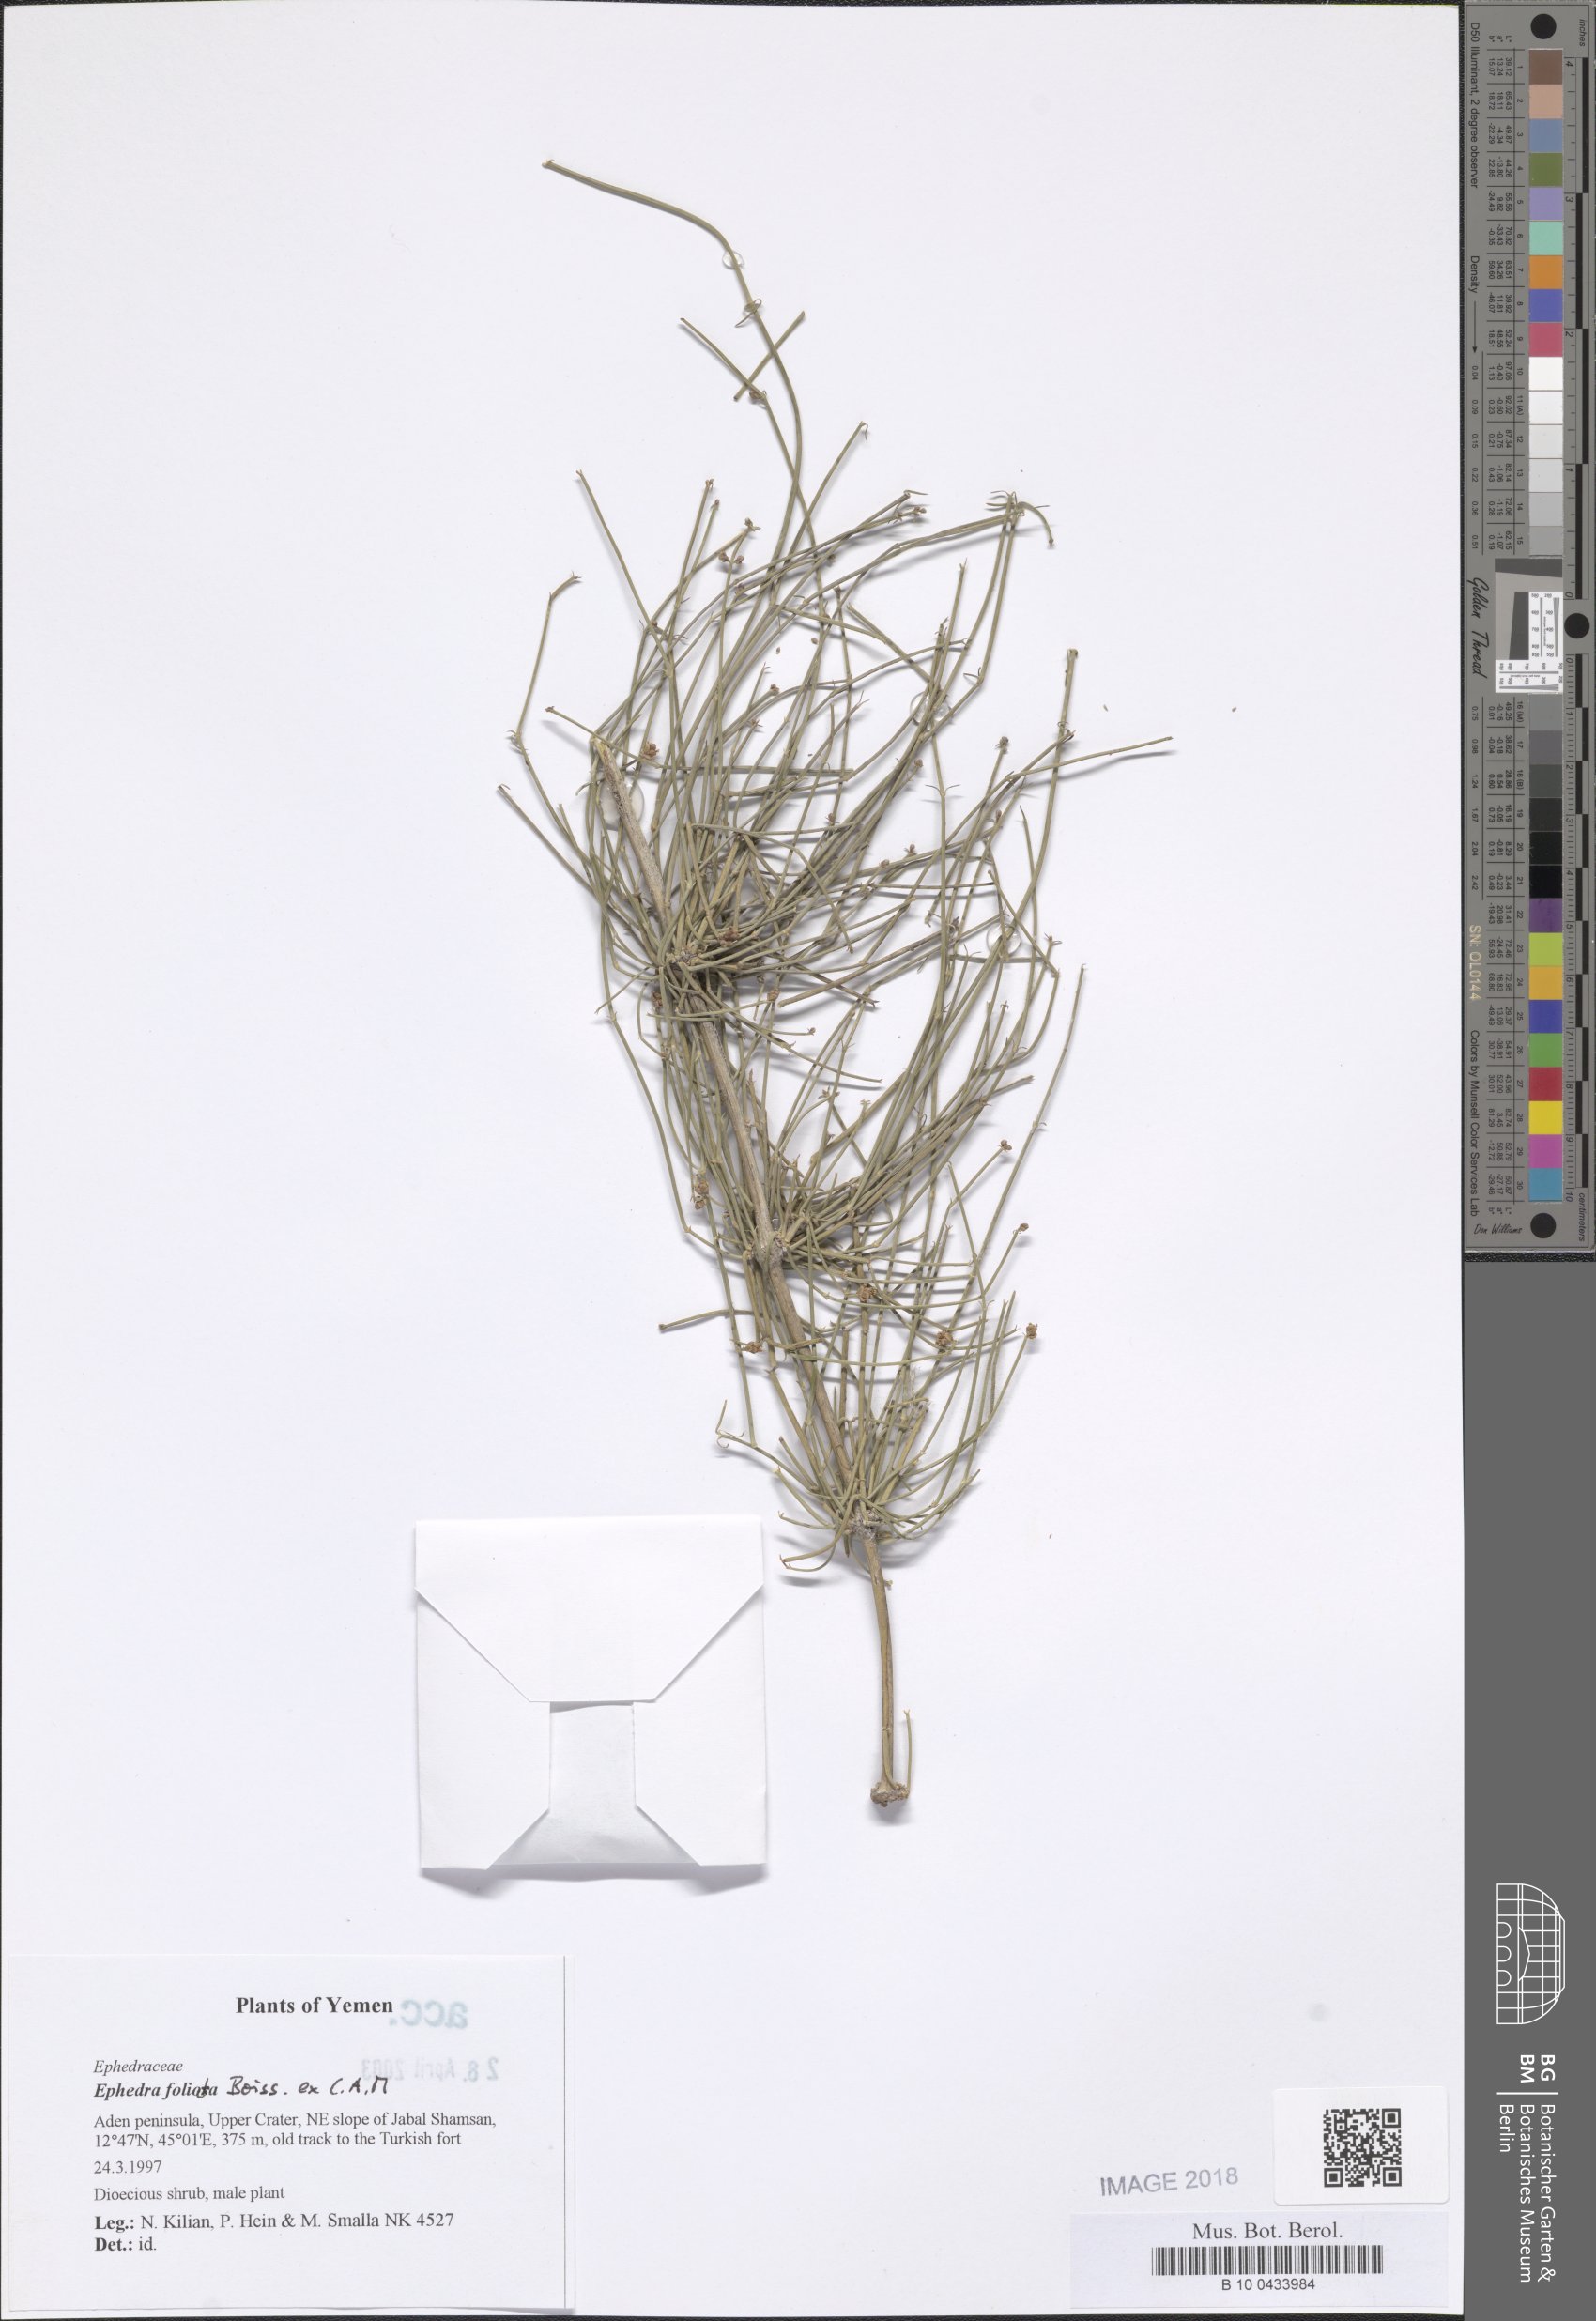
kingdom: Plantae
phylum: Tracheophyta
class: Gnetopsida
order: Ephedrales
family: Ephedraceae
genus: Ephedra
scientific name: Ephedra ciliata
